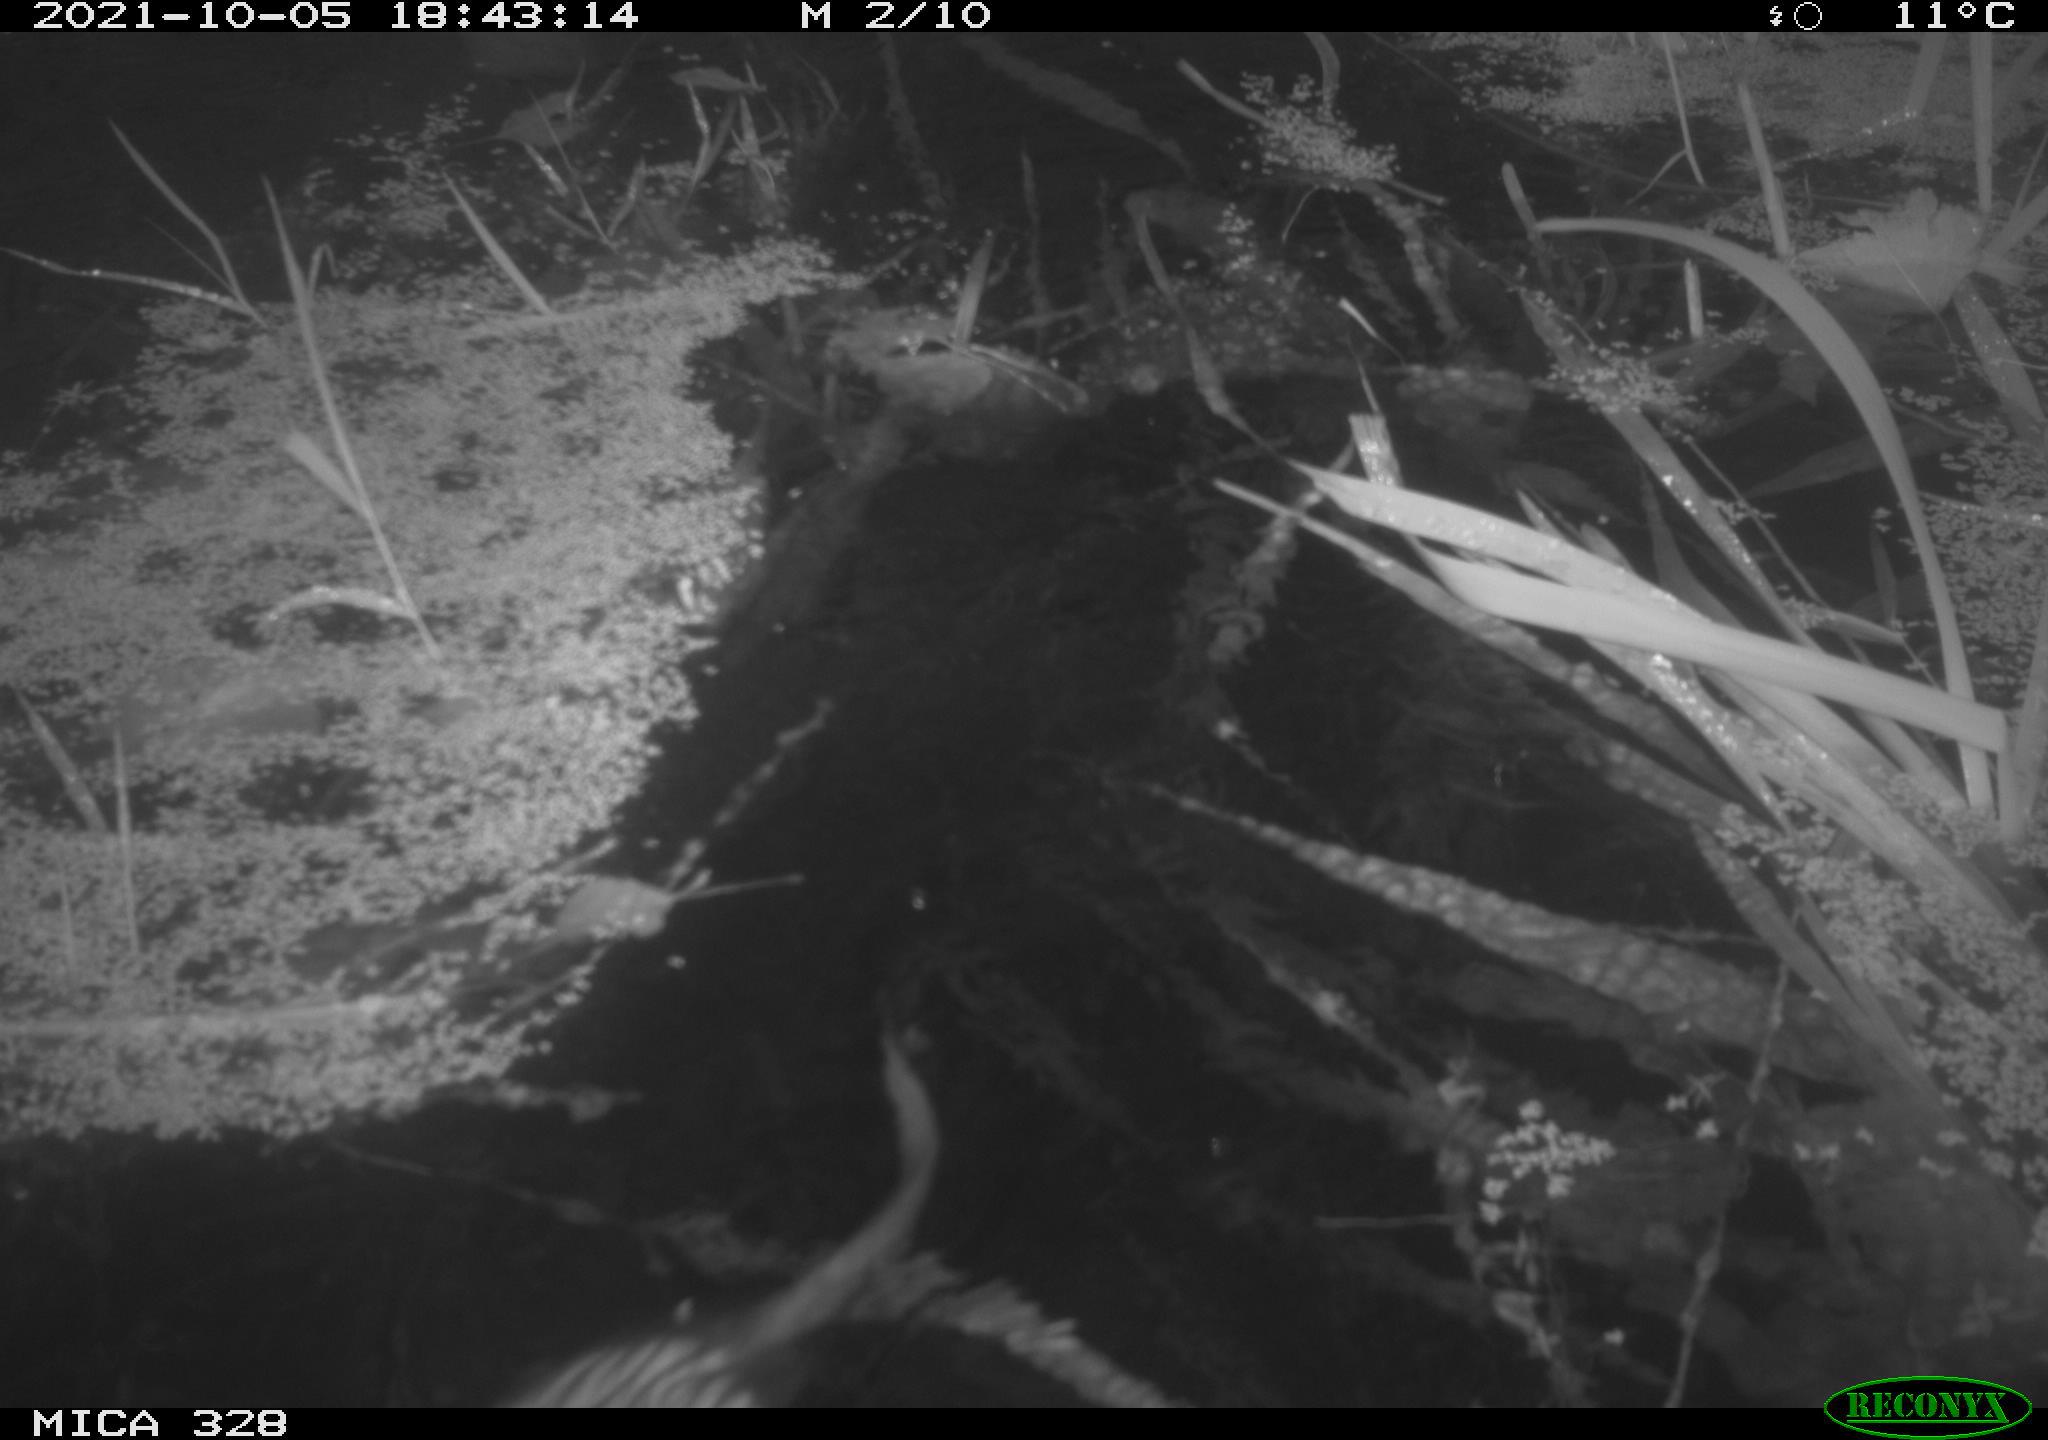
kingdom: Animalia
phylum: Chordata
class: Mammalia
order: Rodentia
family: Cricetidae
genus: Ondatra
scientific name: Ondatra zibethicus
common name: Muskrat
